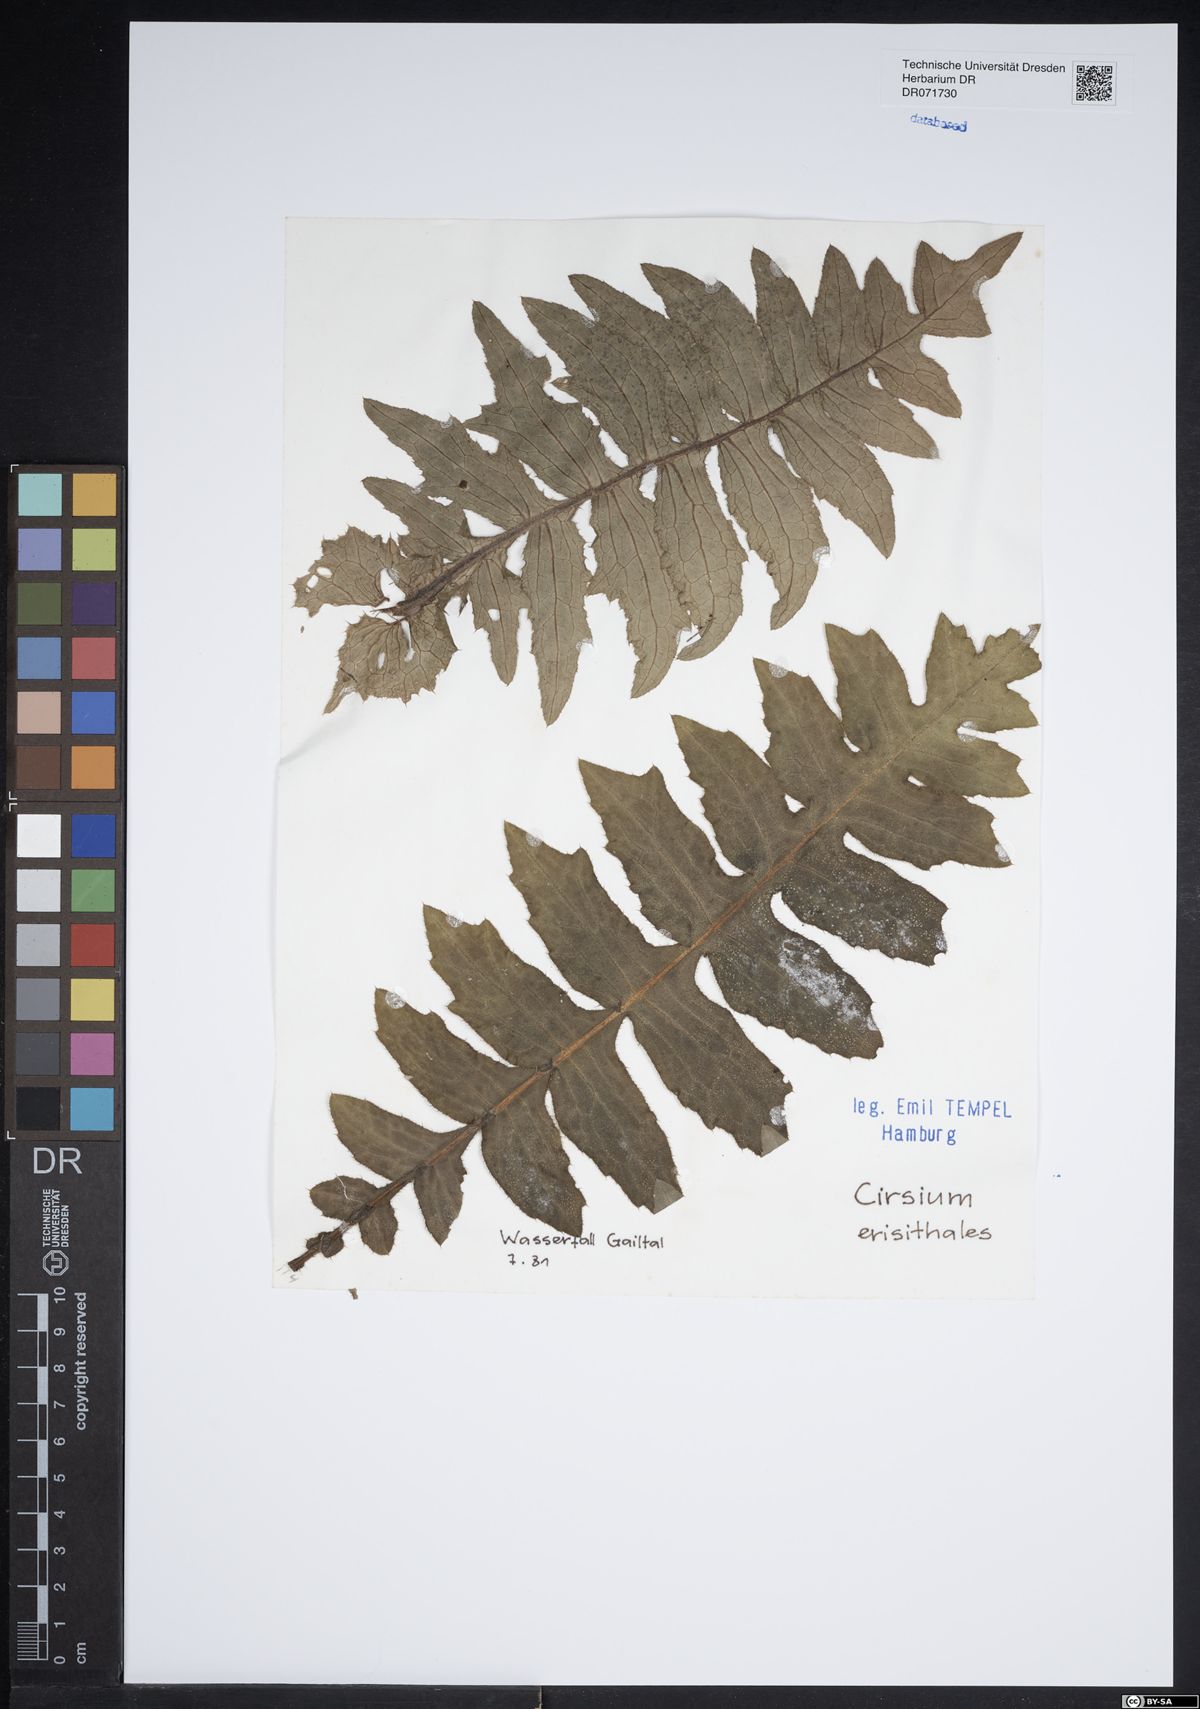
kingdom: Plantae
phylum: Tracheophyta
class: Magnoliopsida
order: Asterales
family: Asteraceae
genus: Cirsium
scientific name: Cirsium erisithales
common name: Yellow thistle
